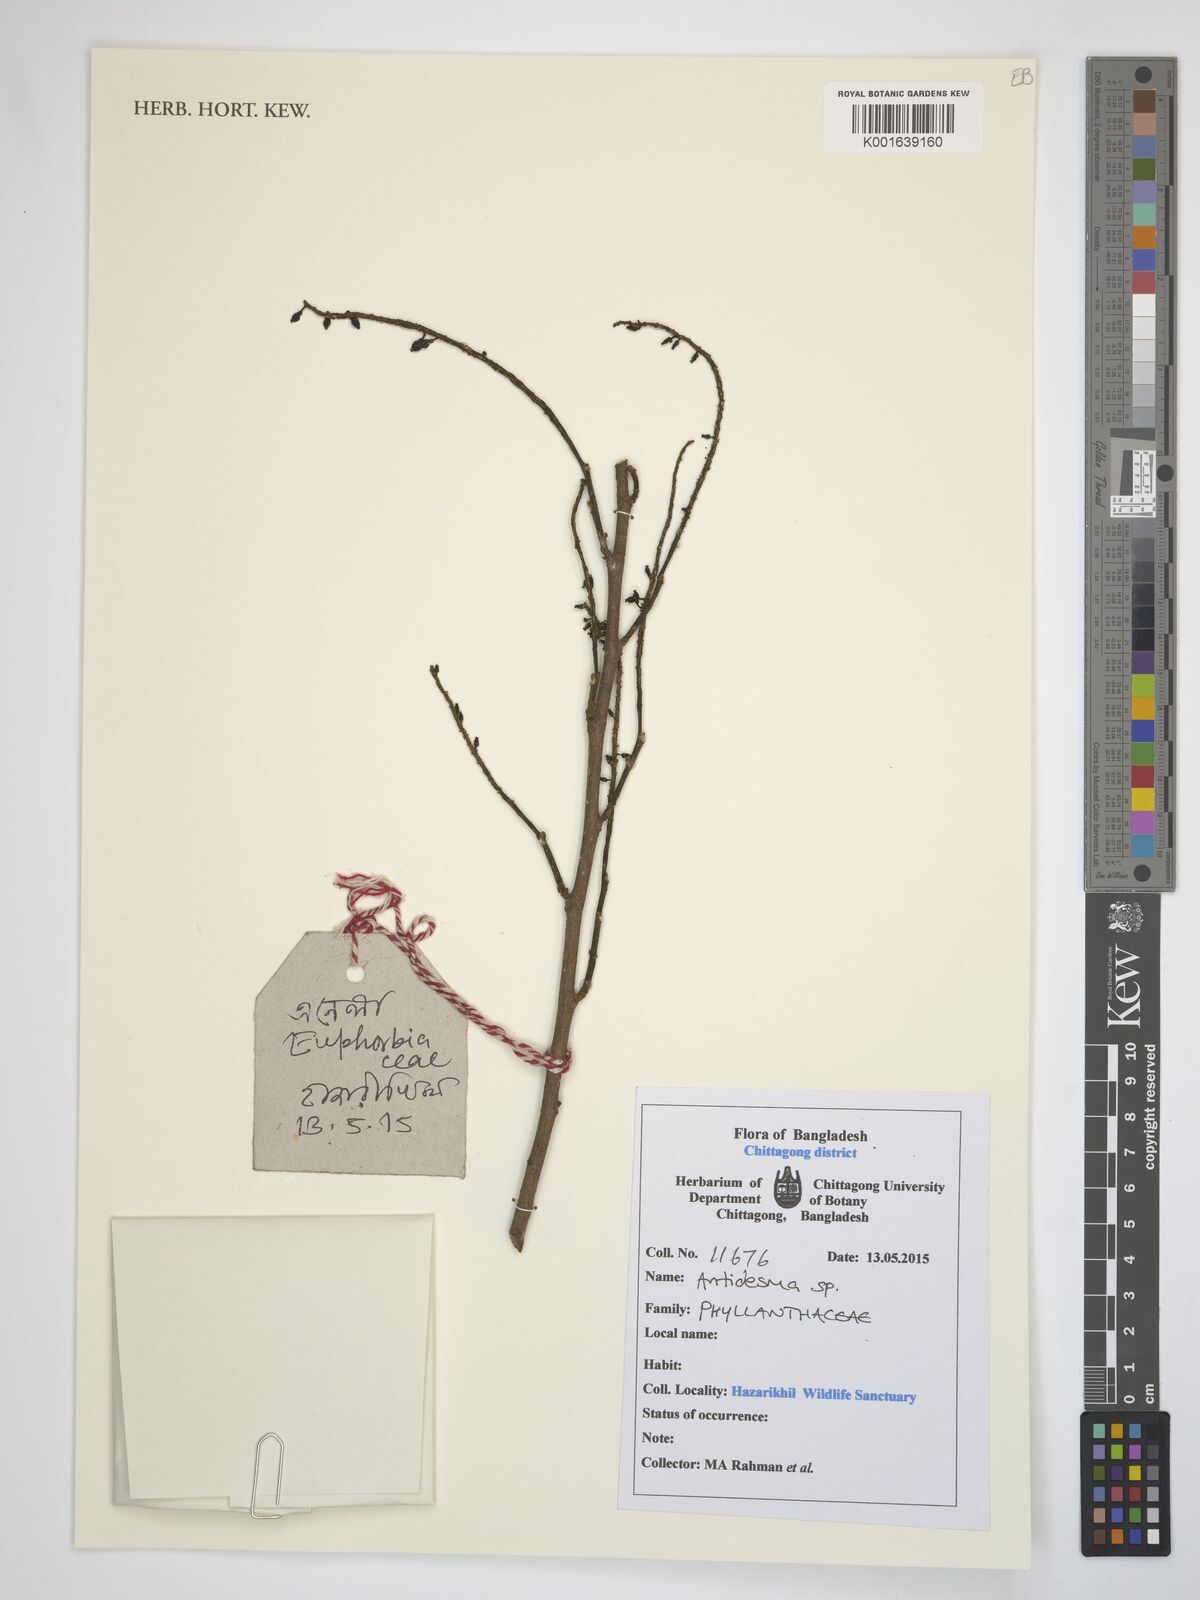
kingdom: Plantae
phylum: Tracheophyta
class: Magnoliopsida
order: Malpighiales
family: Phyllanthaceae
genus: Antidesma
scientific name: Antidesma
